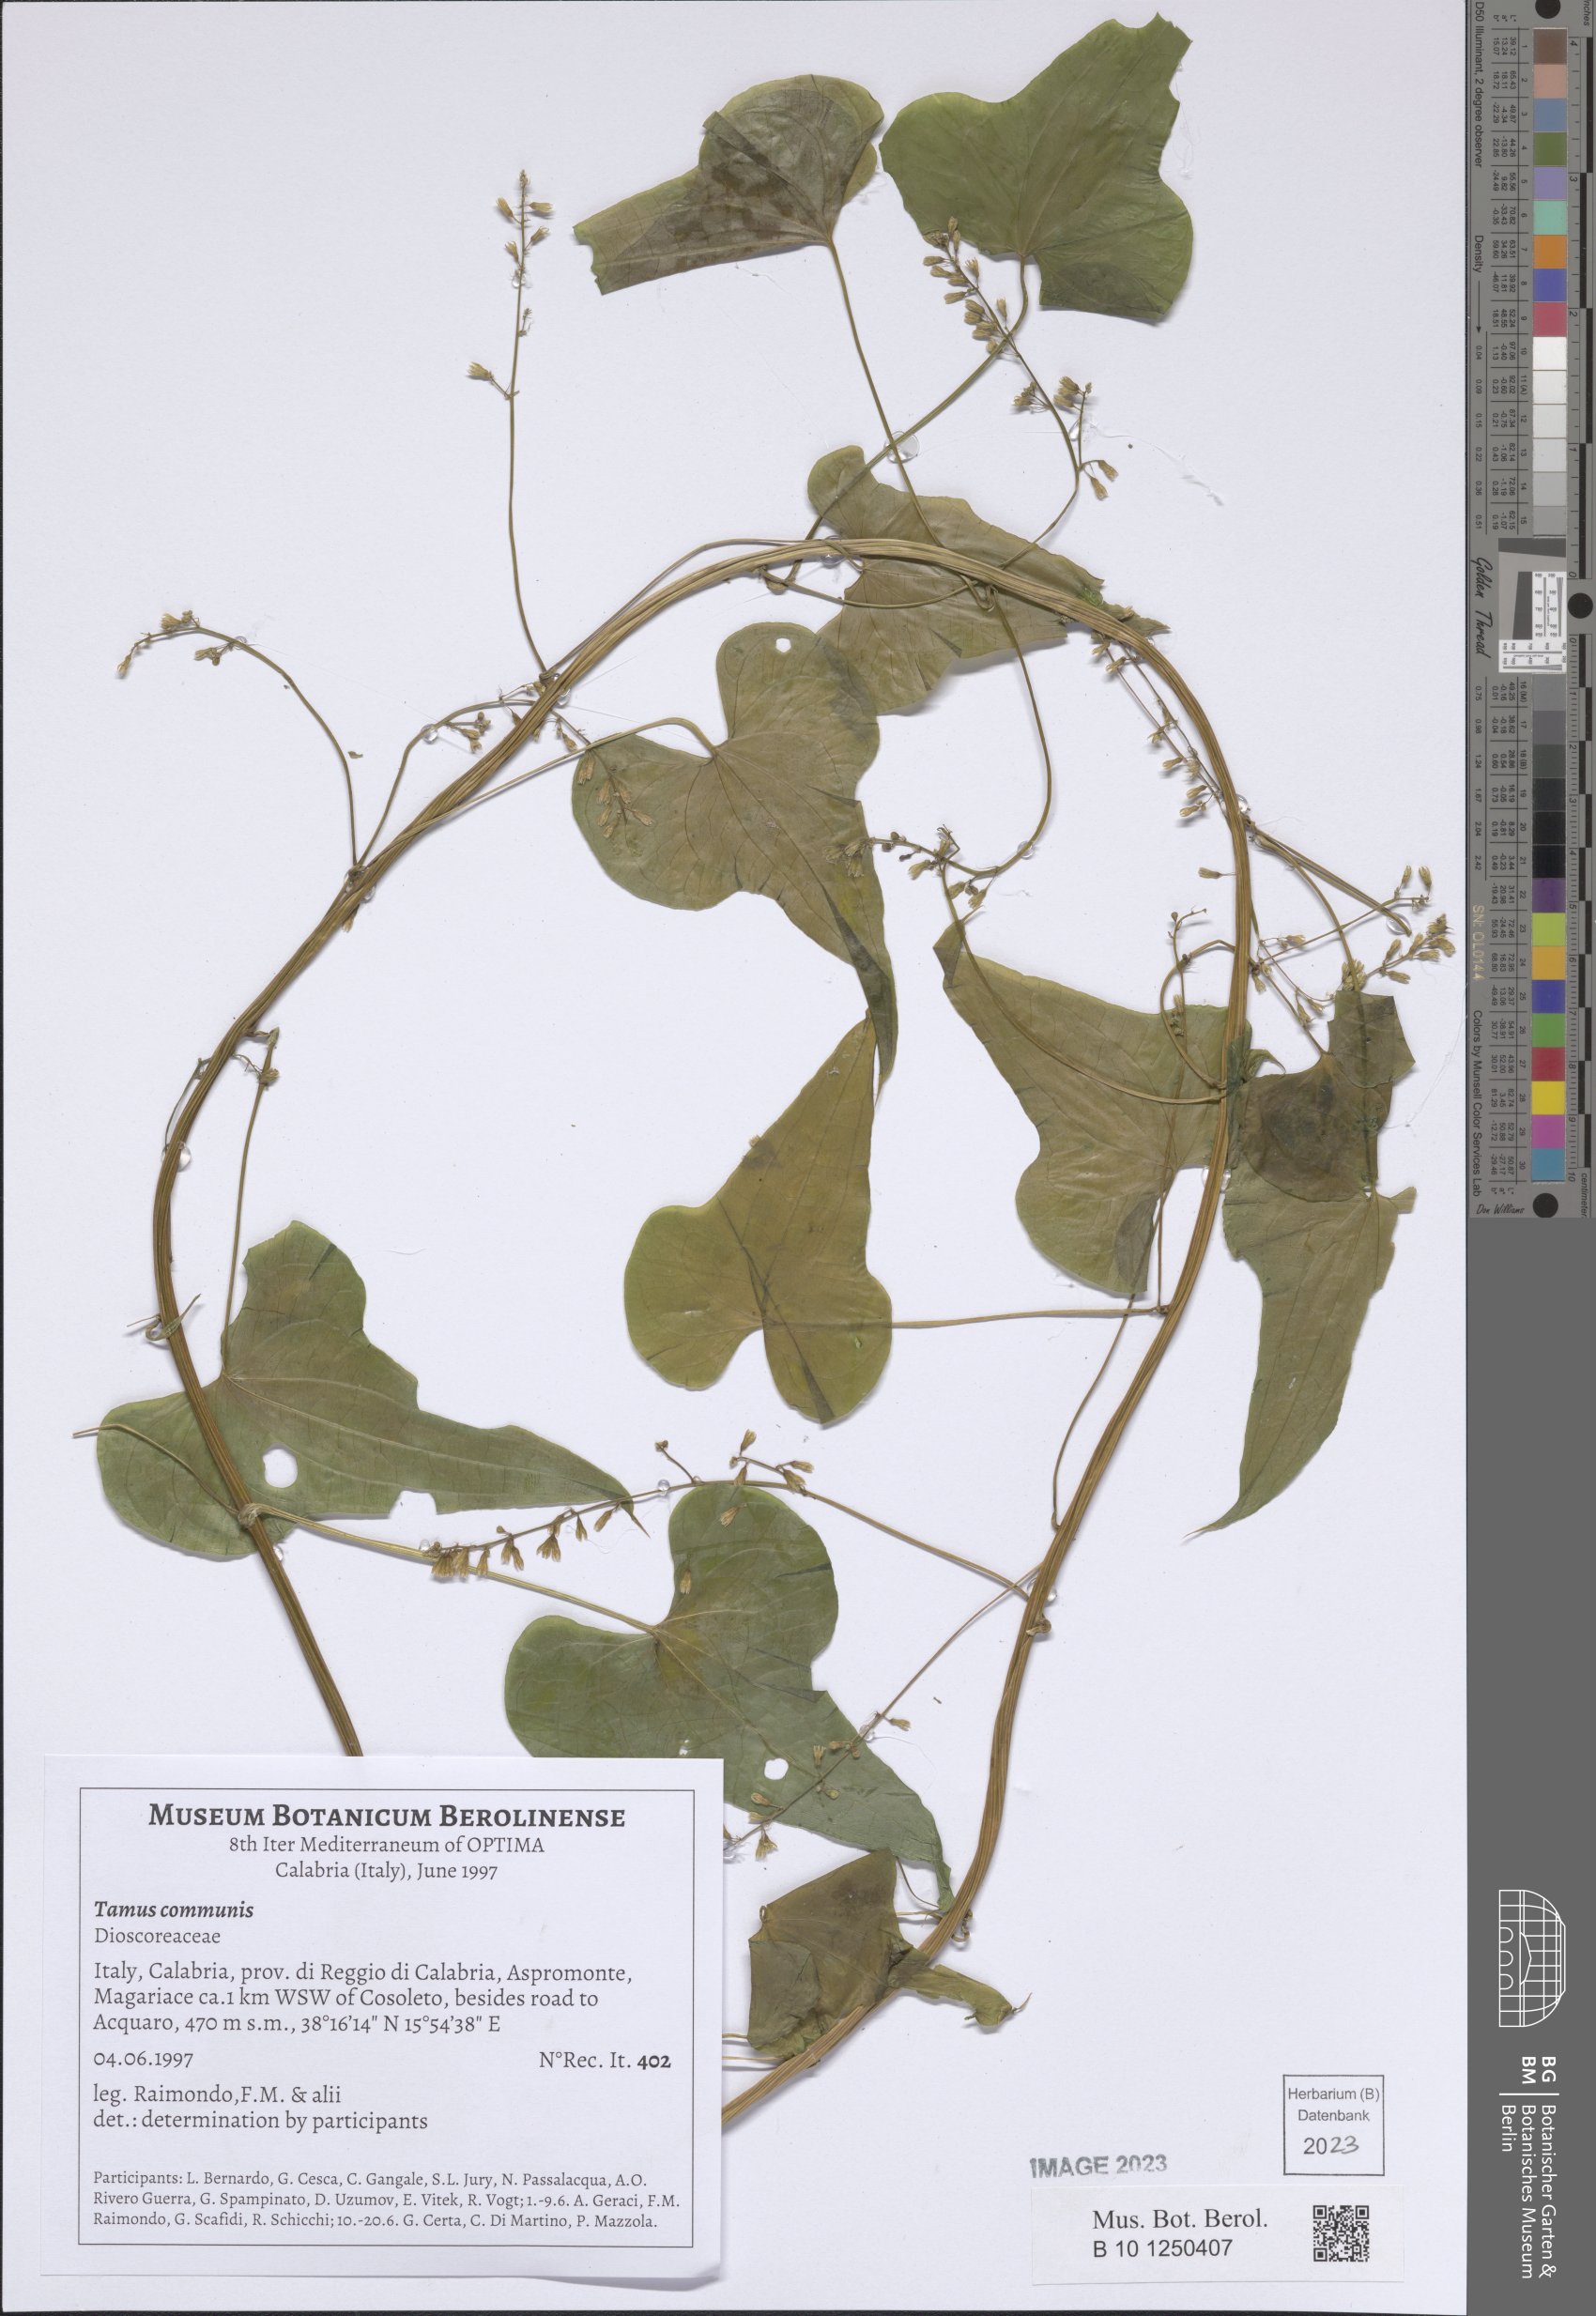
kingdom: Plantae
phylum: Tracheophyta
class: Liliopsida
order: Dioscoreales
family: Dioscoreaceae
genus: Dioscorea
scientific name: Dioscorea communis
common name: Black-bindweed
